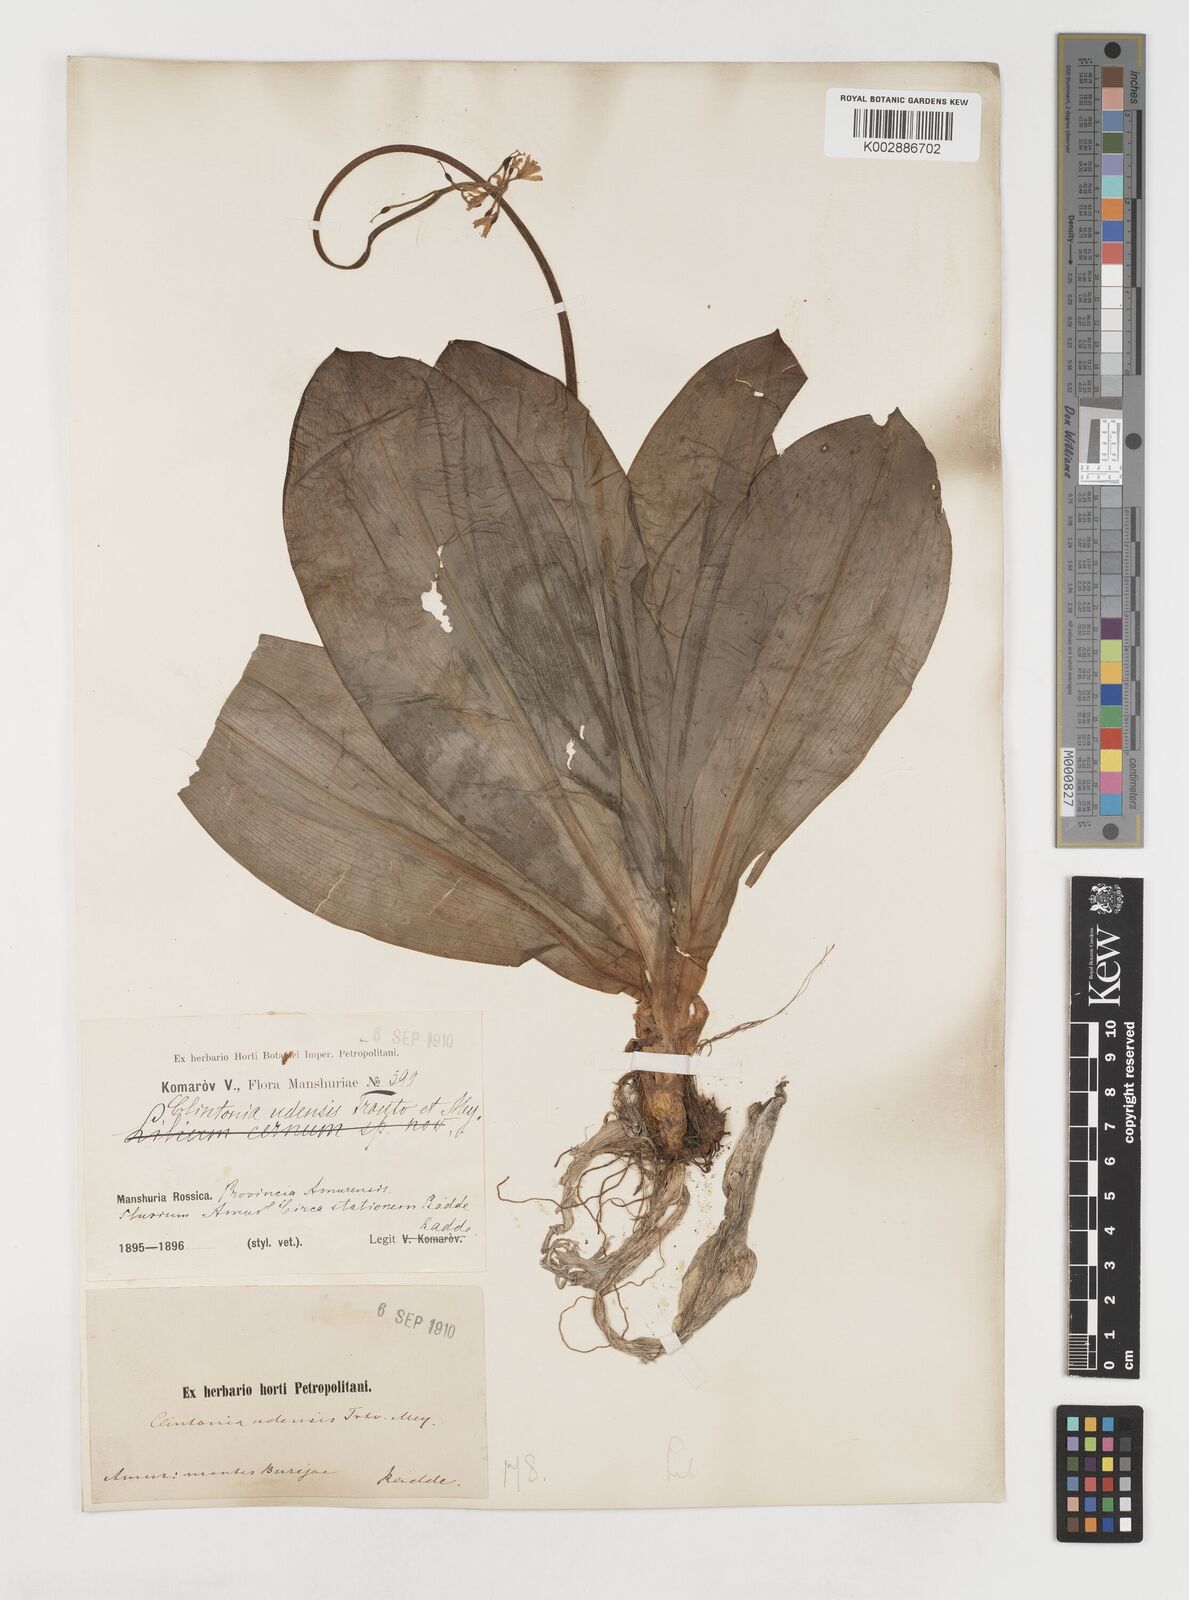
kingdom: Plantae
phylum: Tracheophyta
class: Liliopsida
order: Liliales
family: Liliaceae
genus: Clintonia
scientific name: Clintonia udensis
